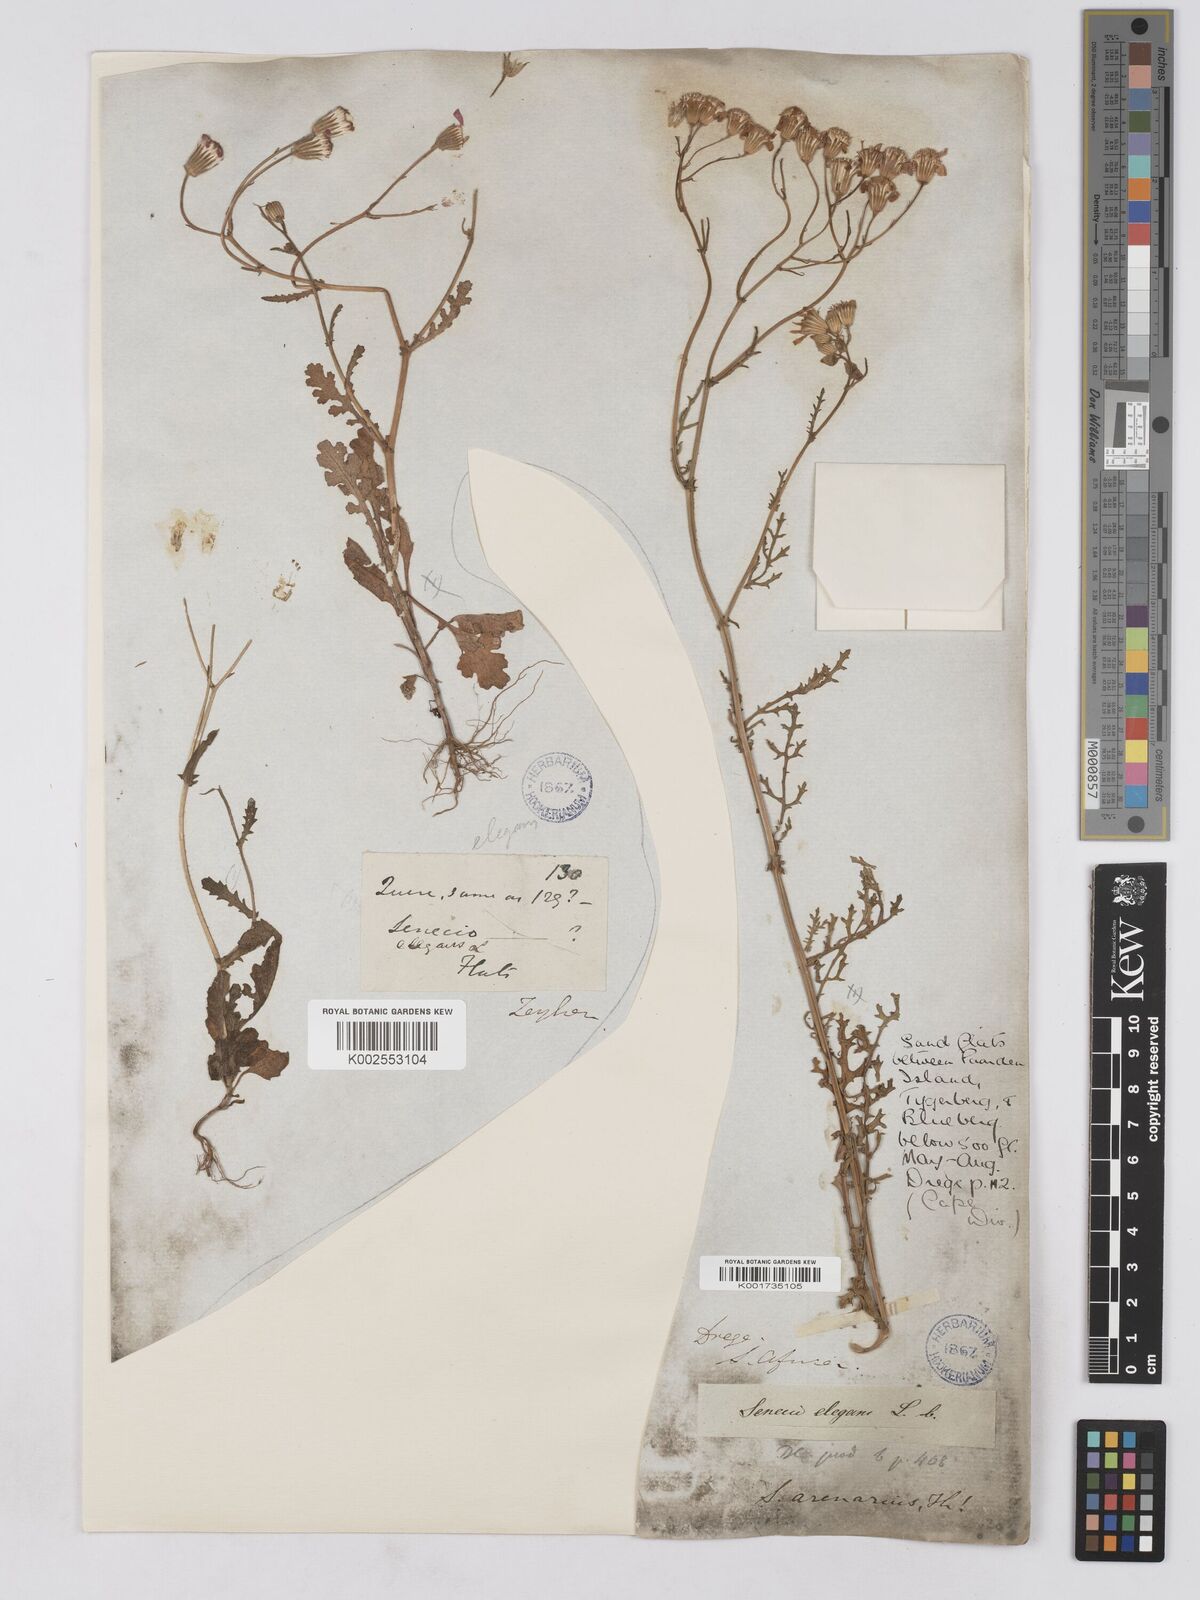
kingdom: Plantae
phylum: Tracheophyta
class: Magnoliopsida
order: Asterales
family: Asteraceae
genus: Senecio
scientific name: Senecio arenarius
